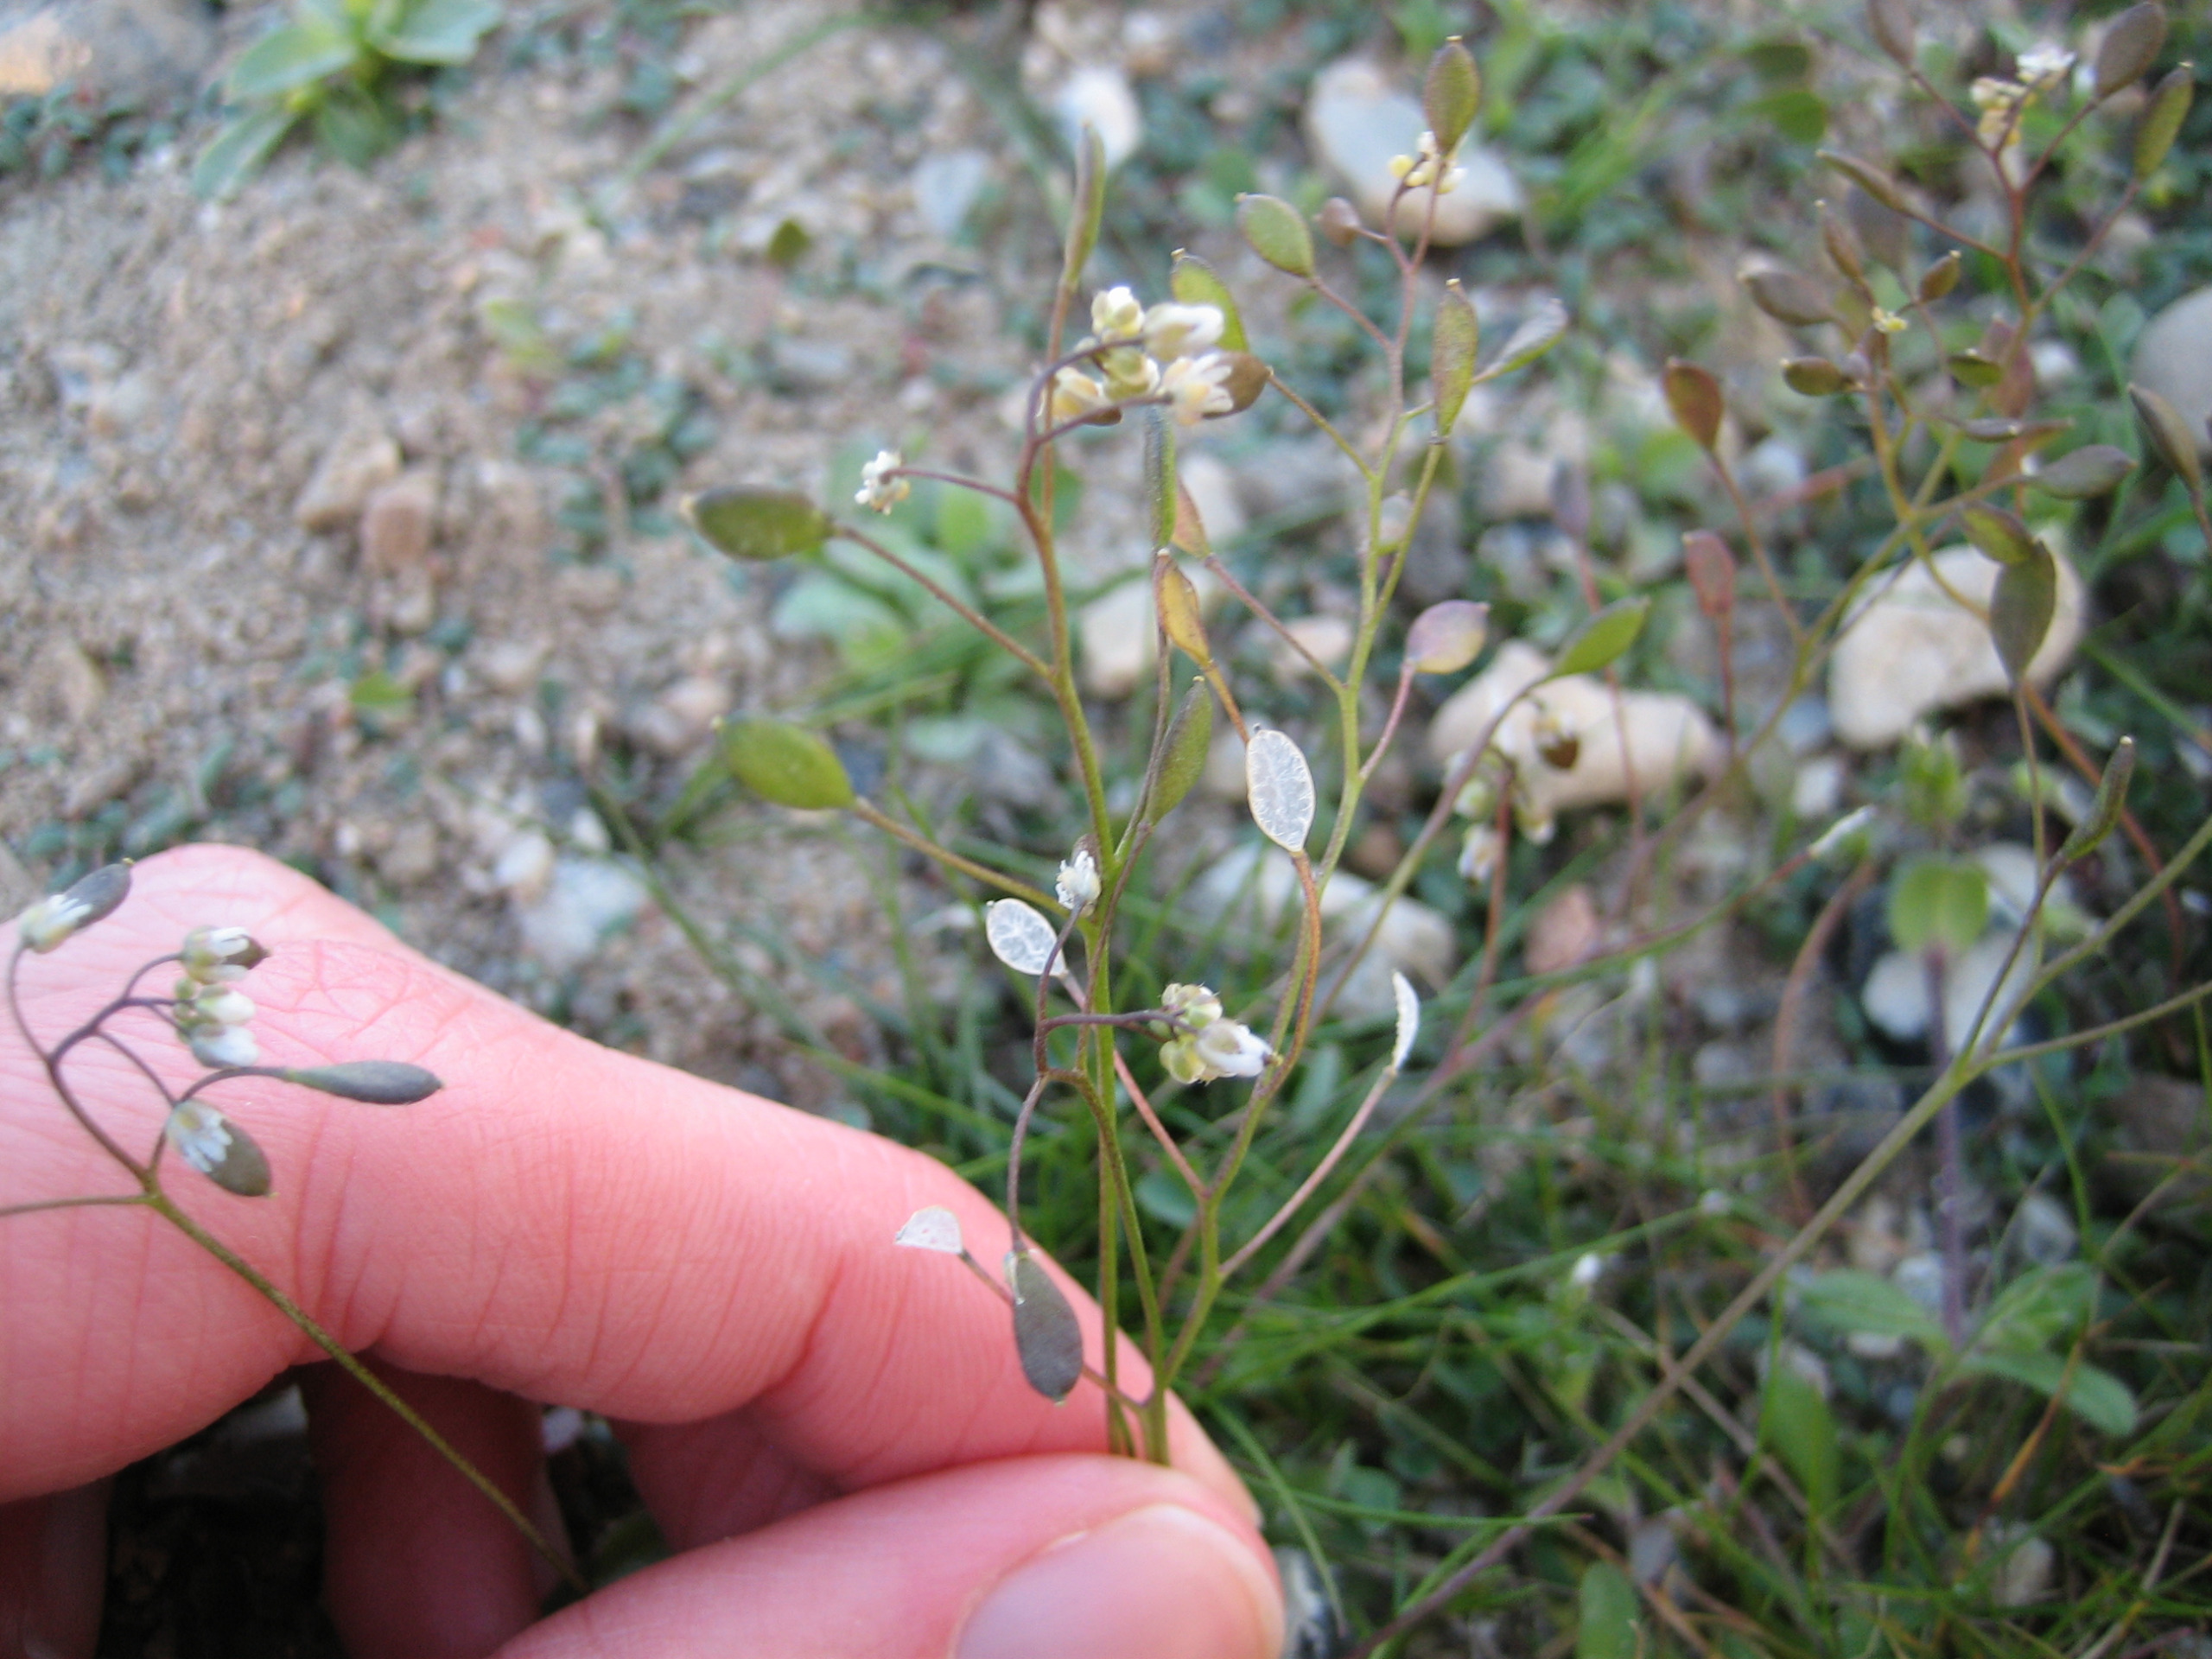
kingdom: Plantae
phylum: Tracheophyta
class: Magnoliopsida
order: Brassicales
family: Brassicaceae
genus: Draba
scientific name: Draba verna
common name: Vår-gæslingeblomst
